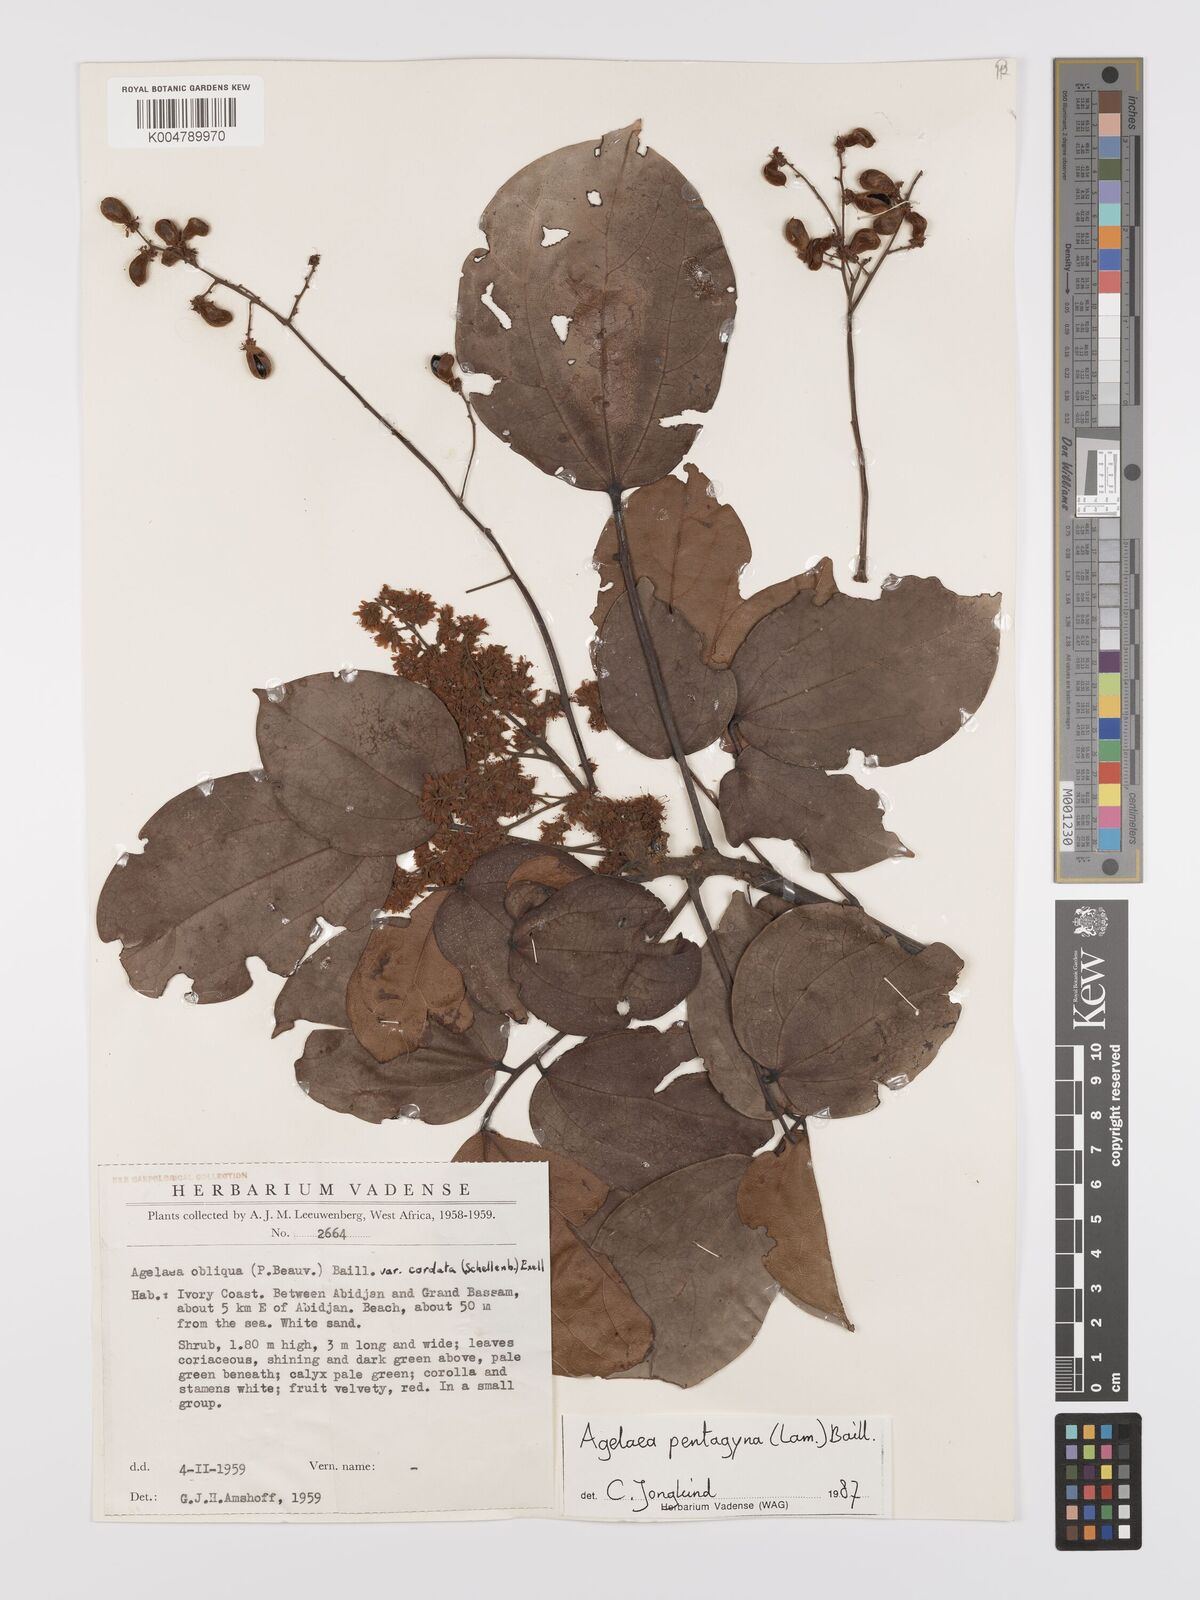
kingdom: Plantae
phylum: Tracheophyta
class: Magnoliopsida
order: Oxalidales
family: Connaraceae
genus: Agelaea
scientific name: Agelaea pentagyna
